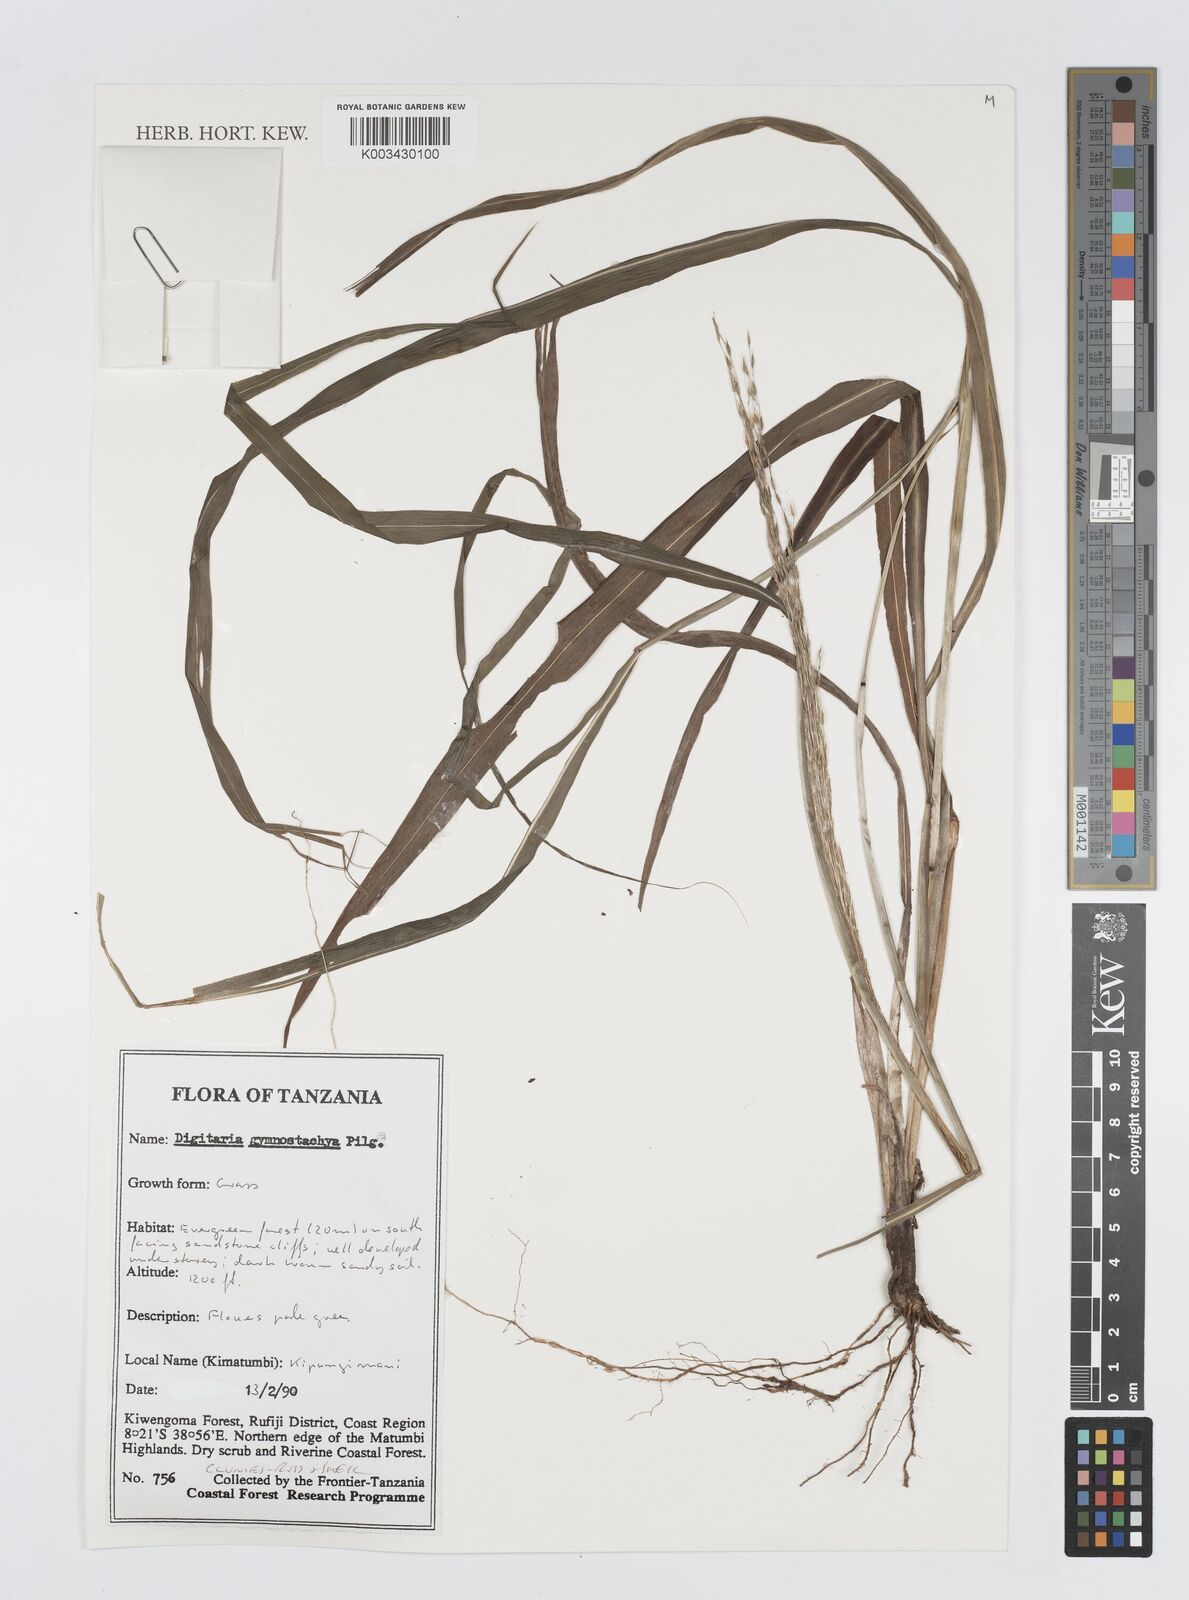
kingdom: Plantae
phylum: Tracheophyta
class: Liliopsida
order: Poales
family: Poaceae
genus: Digitaria
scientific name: Digitaria gymnostachys
